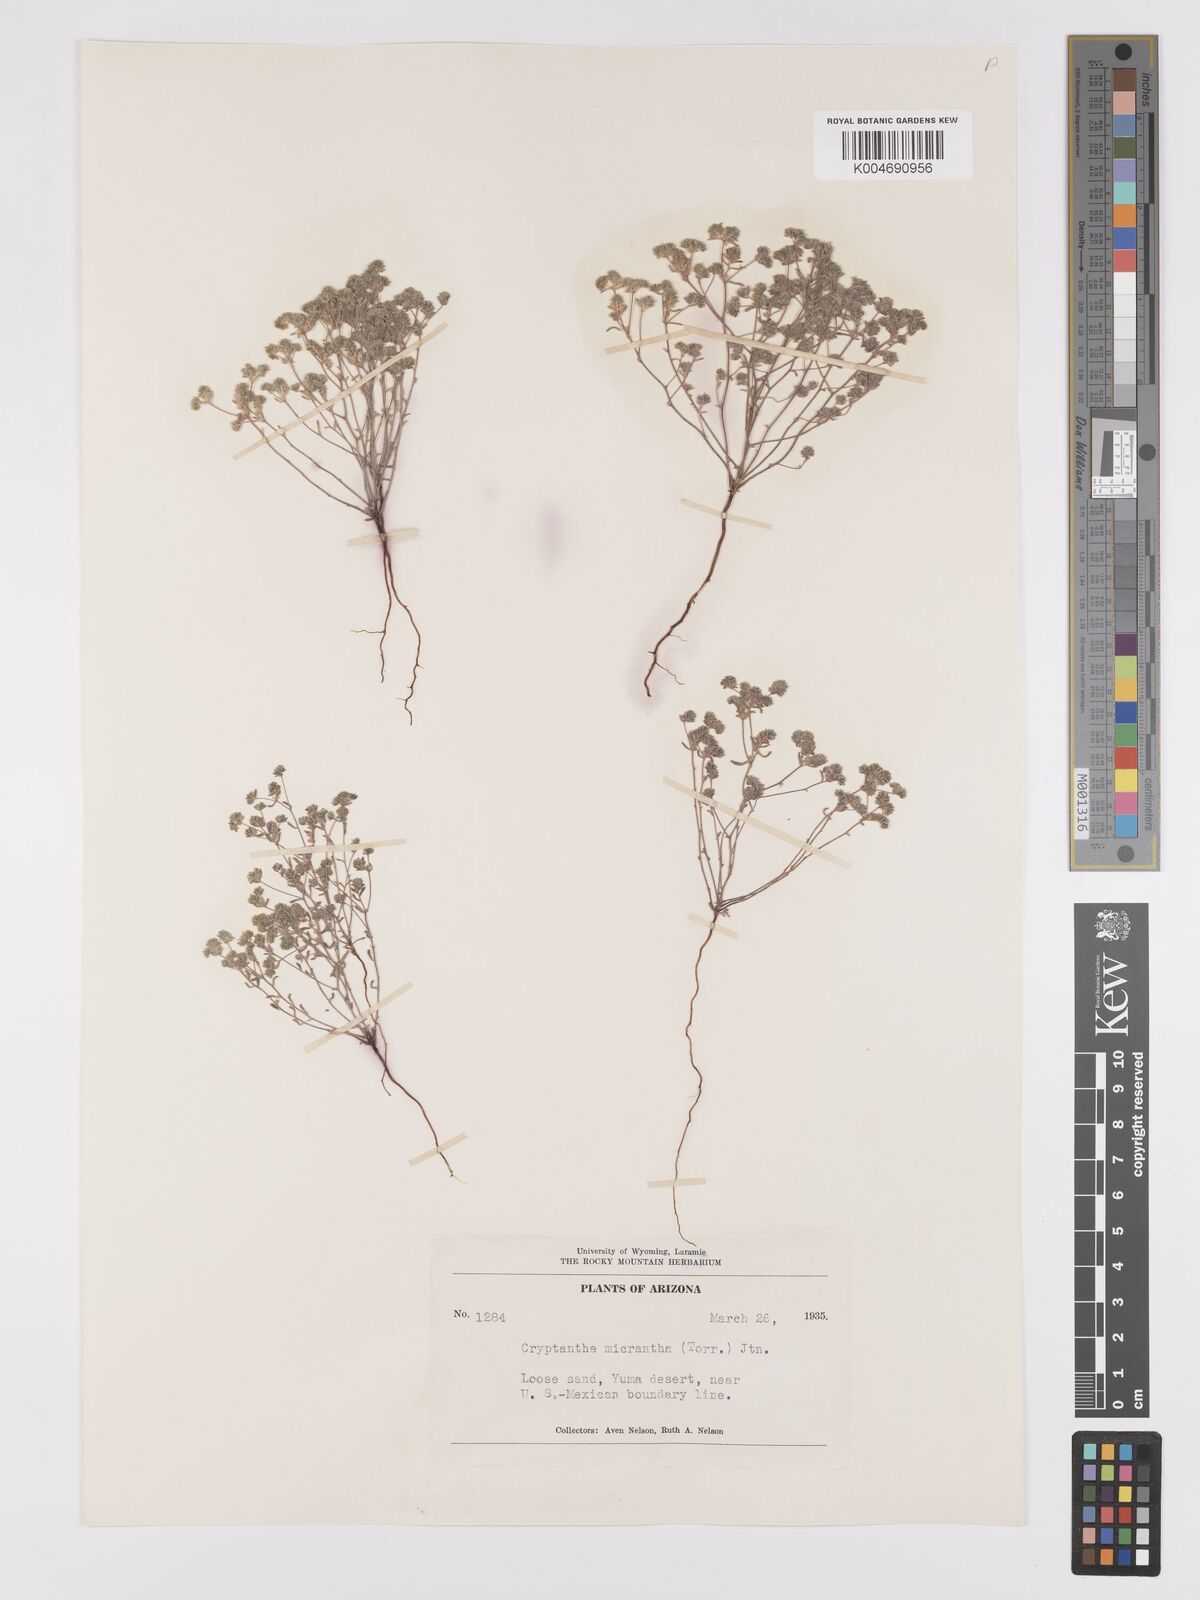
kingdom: Plantae
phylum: Tracheophyta
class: Magnoliopsida
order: Boraginales
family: Boraginaceae
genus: Eremocarya
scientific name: Eremocarya micrantha
